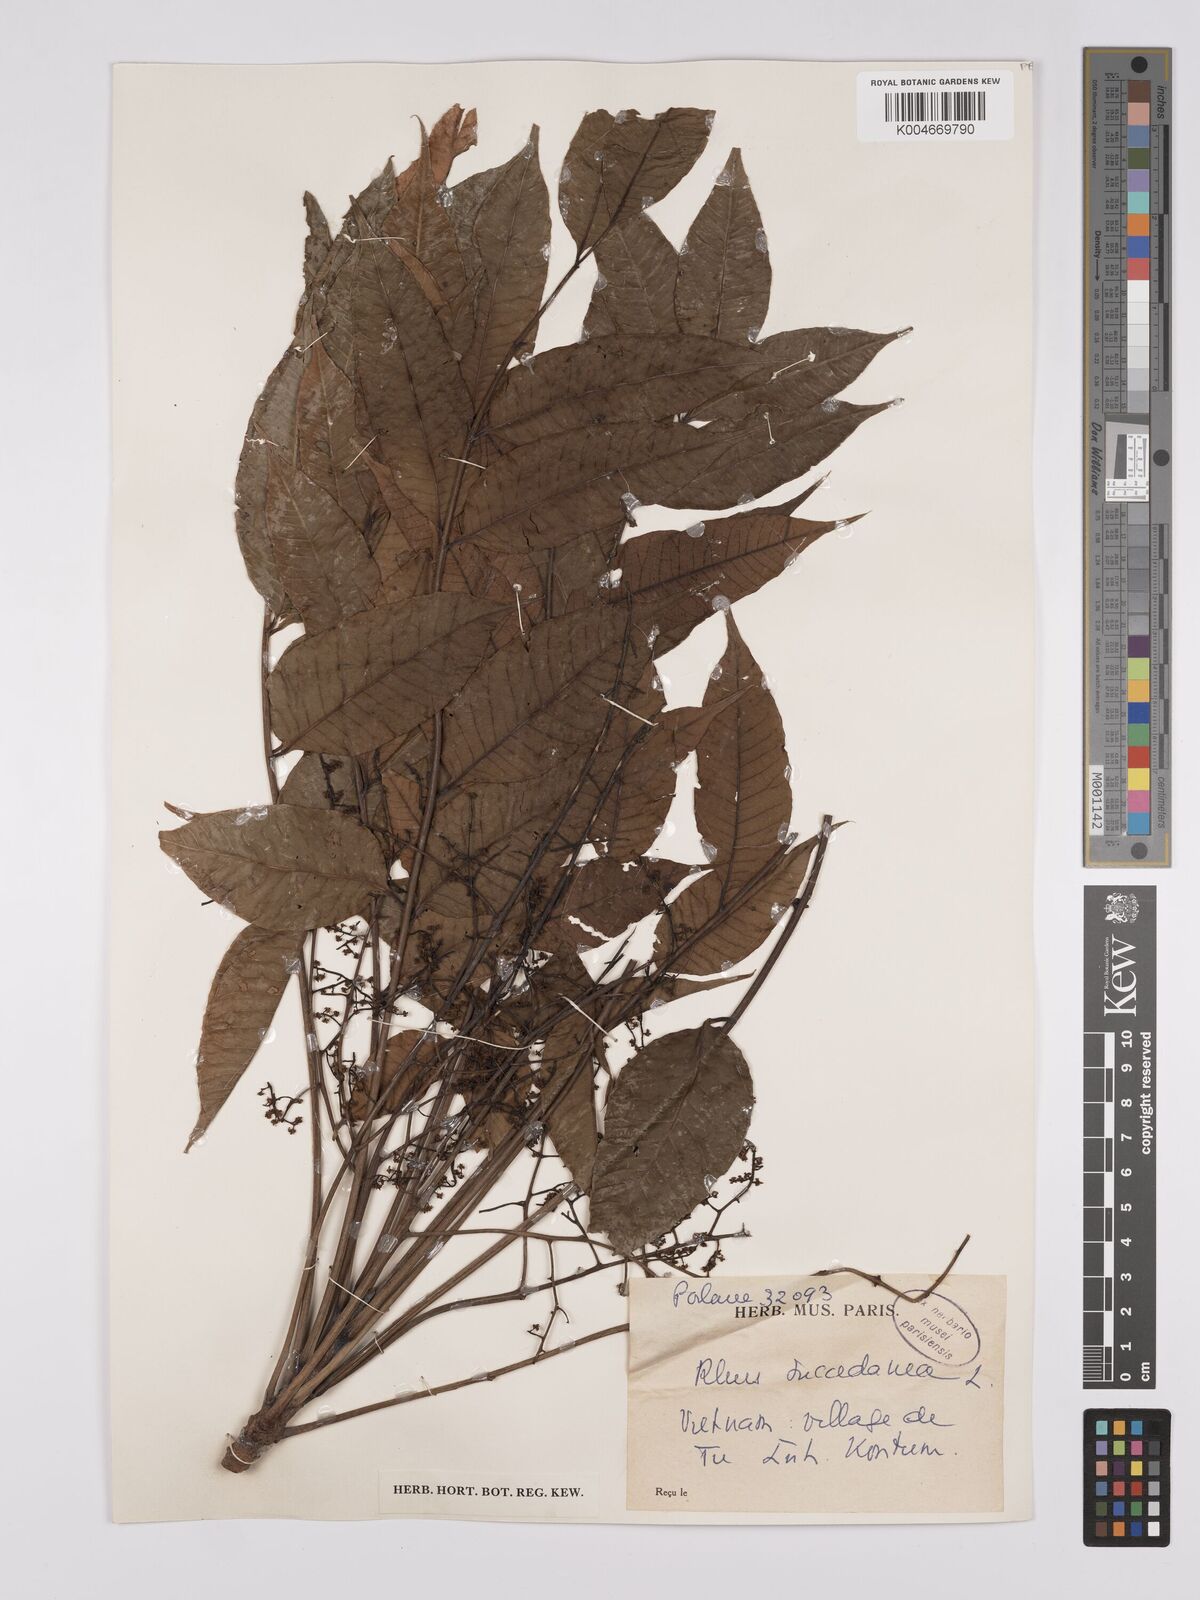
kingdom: Plantae
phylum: Tracheophyta
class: Magnoliopsida
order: Sapindales
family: Anacardiaceae
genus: Toxicodendron
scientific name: Toxicodendron succedaneum
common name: Wax tree
